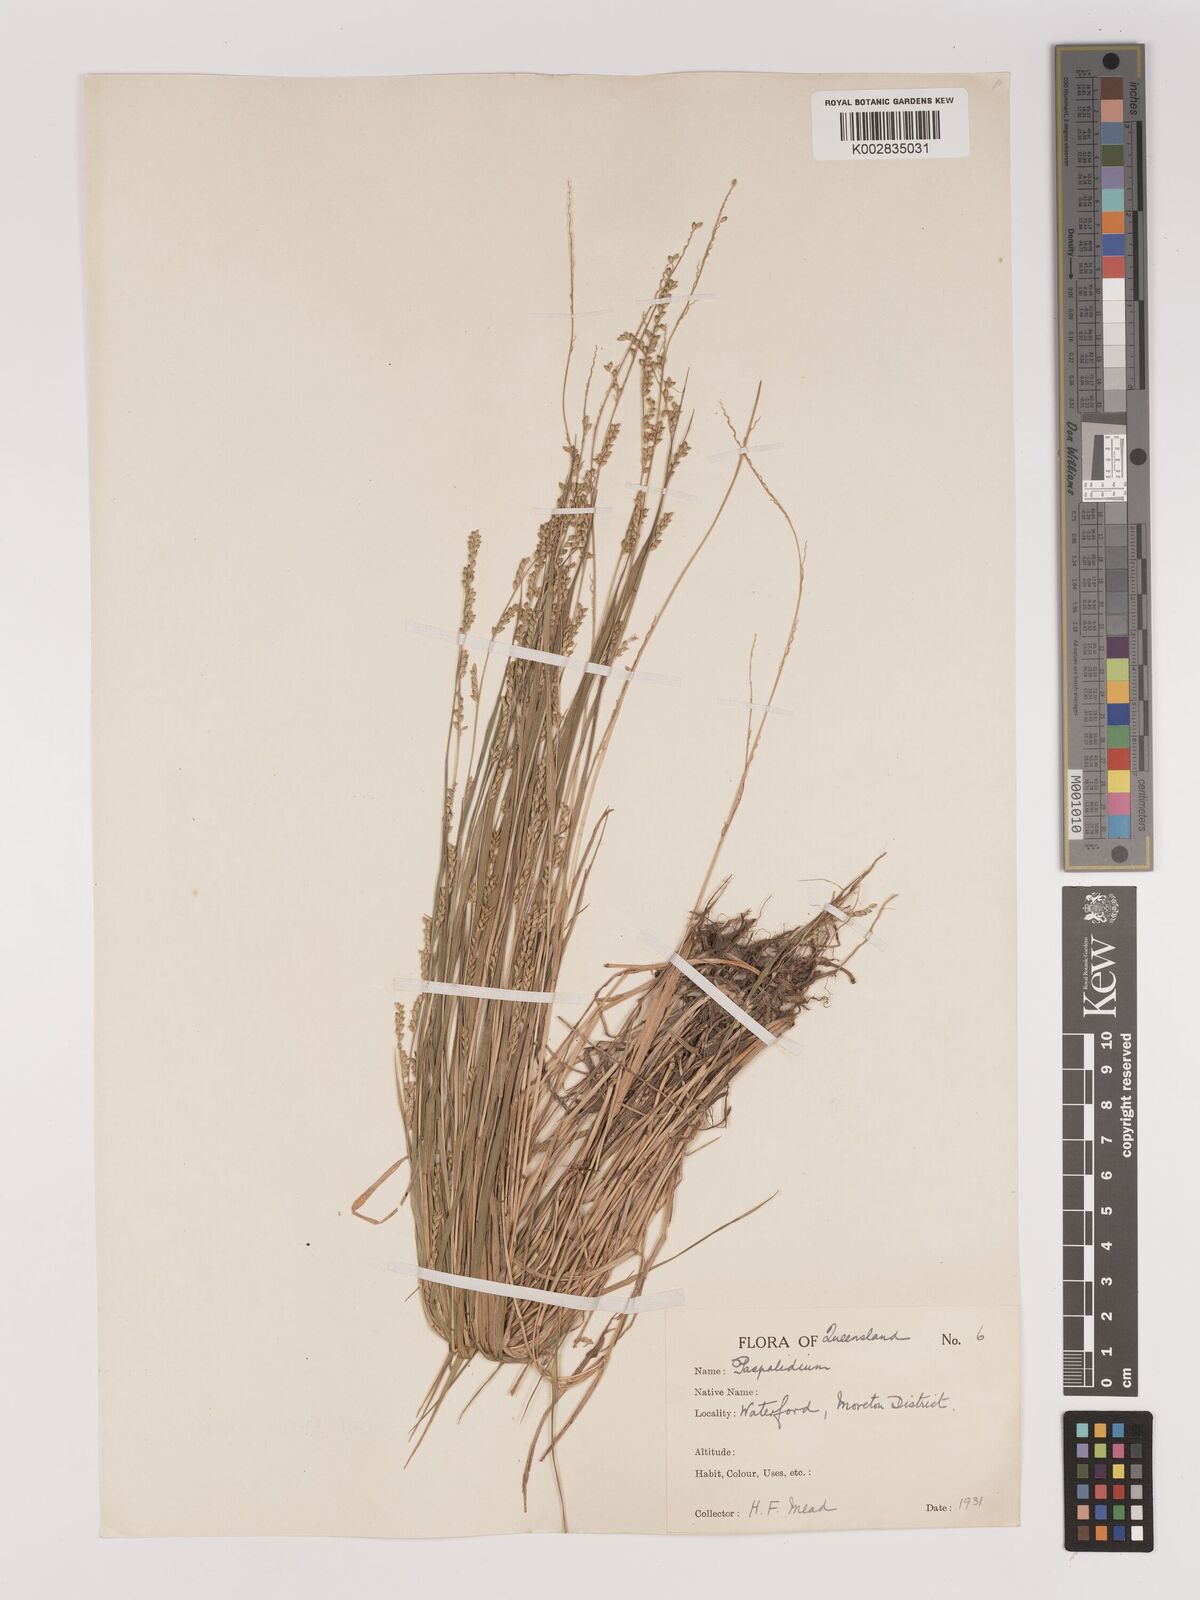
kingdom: Plantae
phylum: Tracheophyta
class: Liliopsida
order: Poales
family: Poaceae
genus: Setaria
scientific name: Setaria
